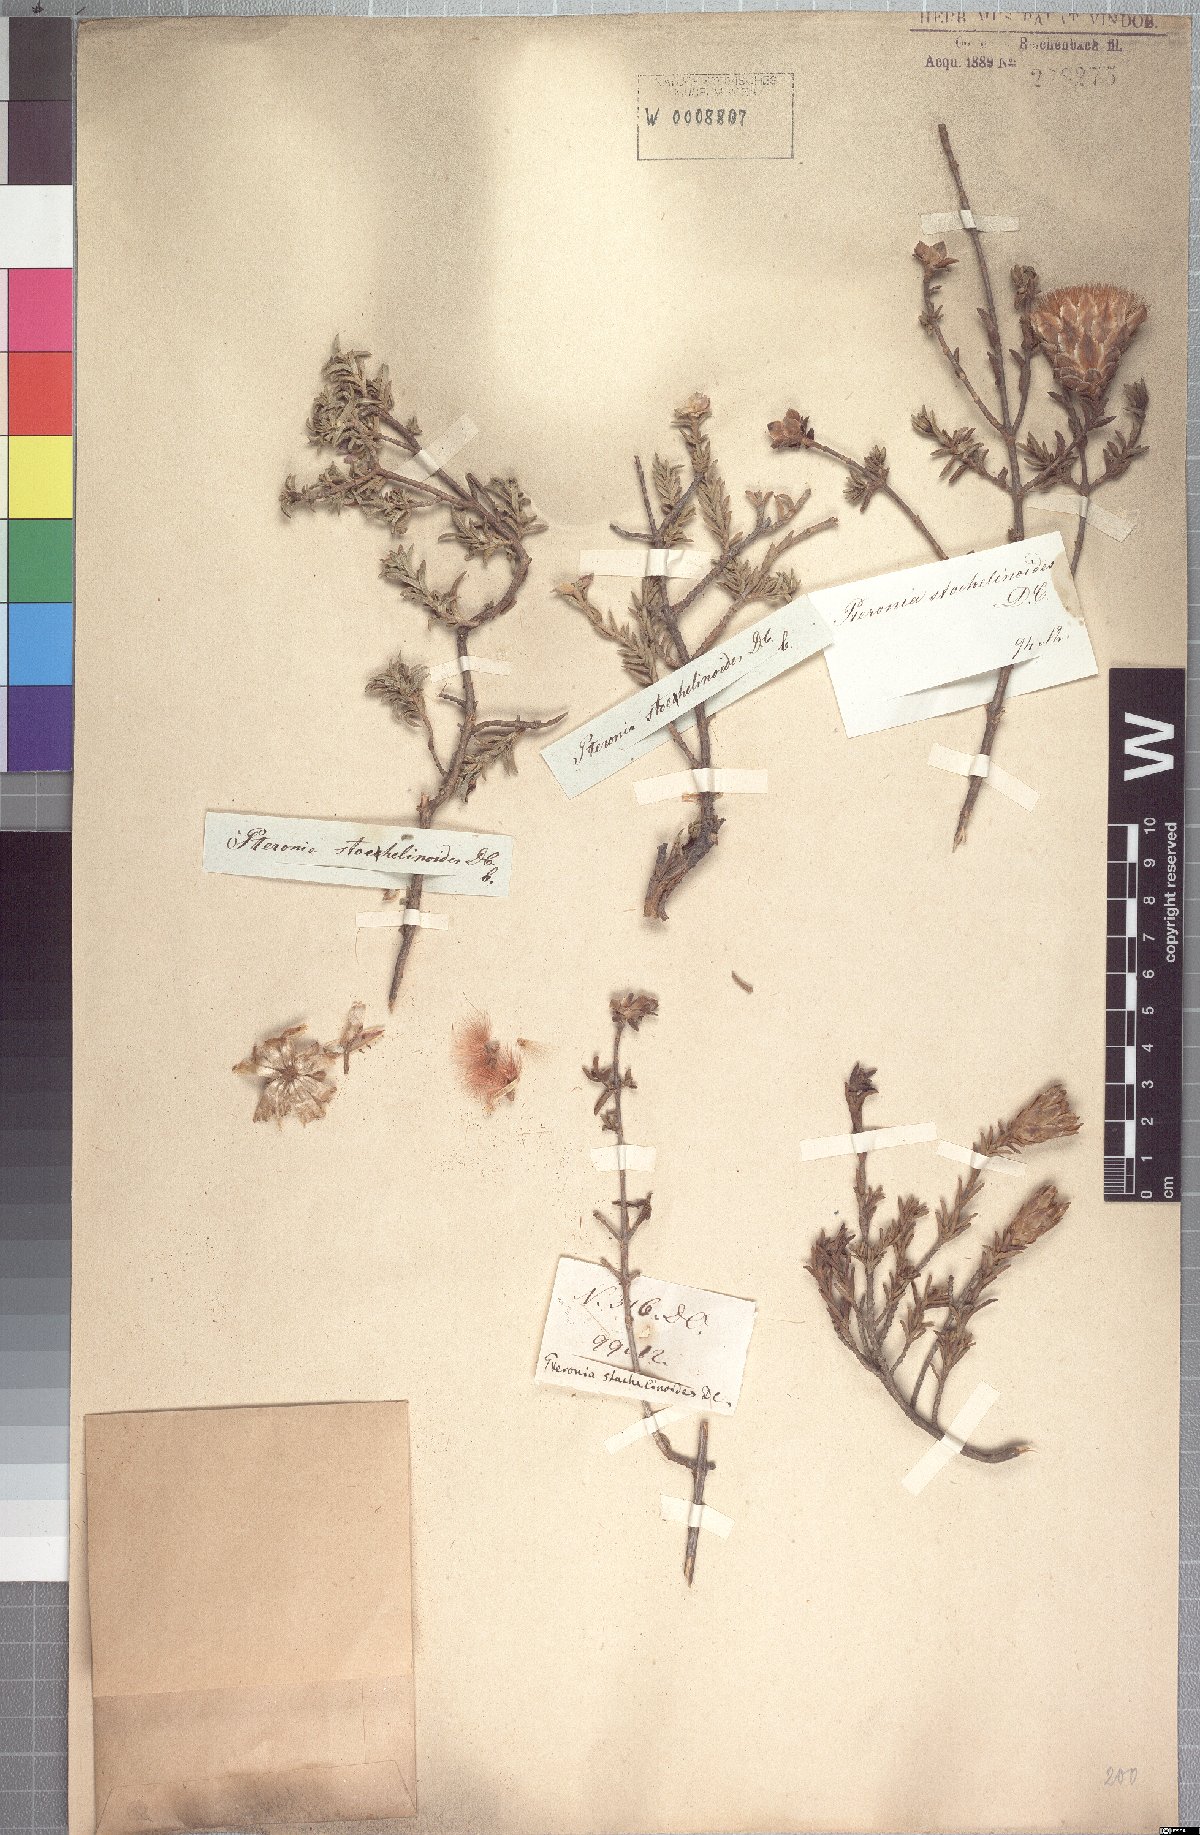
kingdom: Plantae
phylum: Tracheophyta
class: Magnoliopsida
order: Asterales
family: Asteraceae
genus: Pteronia
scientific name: Pteronia stoehelinoides
